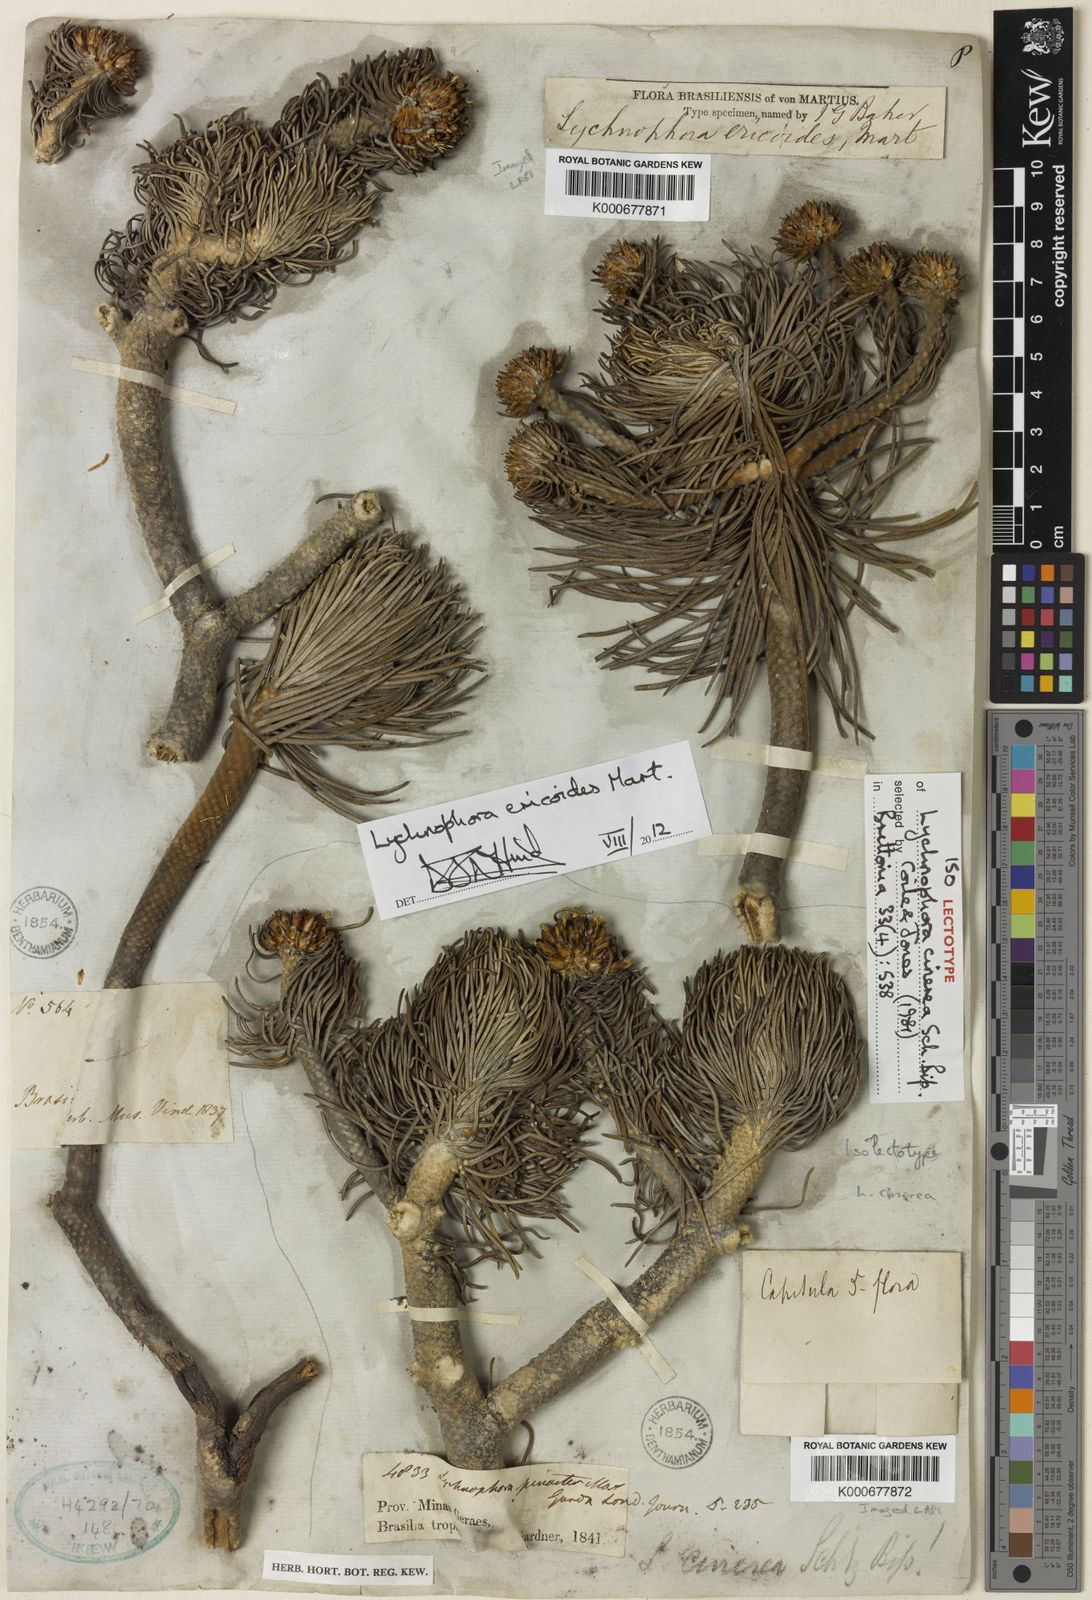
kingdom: Plantae
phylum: Tracheophyta
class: Magnoliopsida
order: Asterales
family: Asteraceae
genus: Lychnophora
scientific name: Lychnophora ericoides
